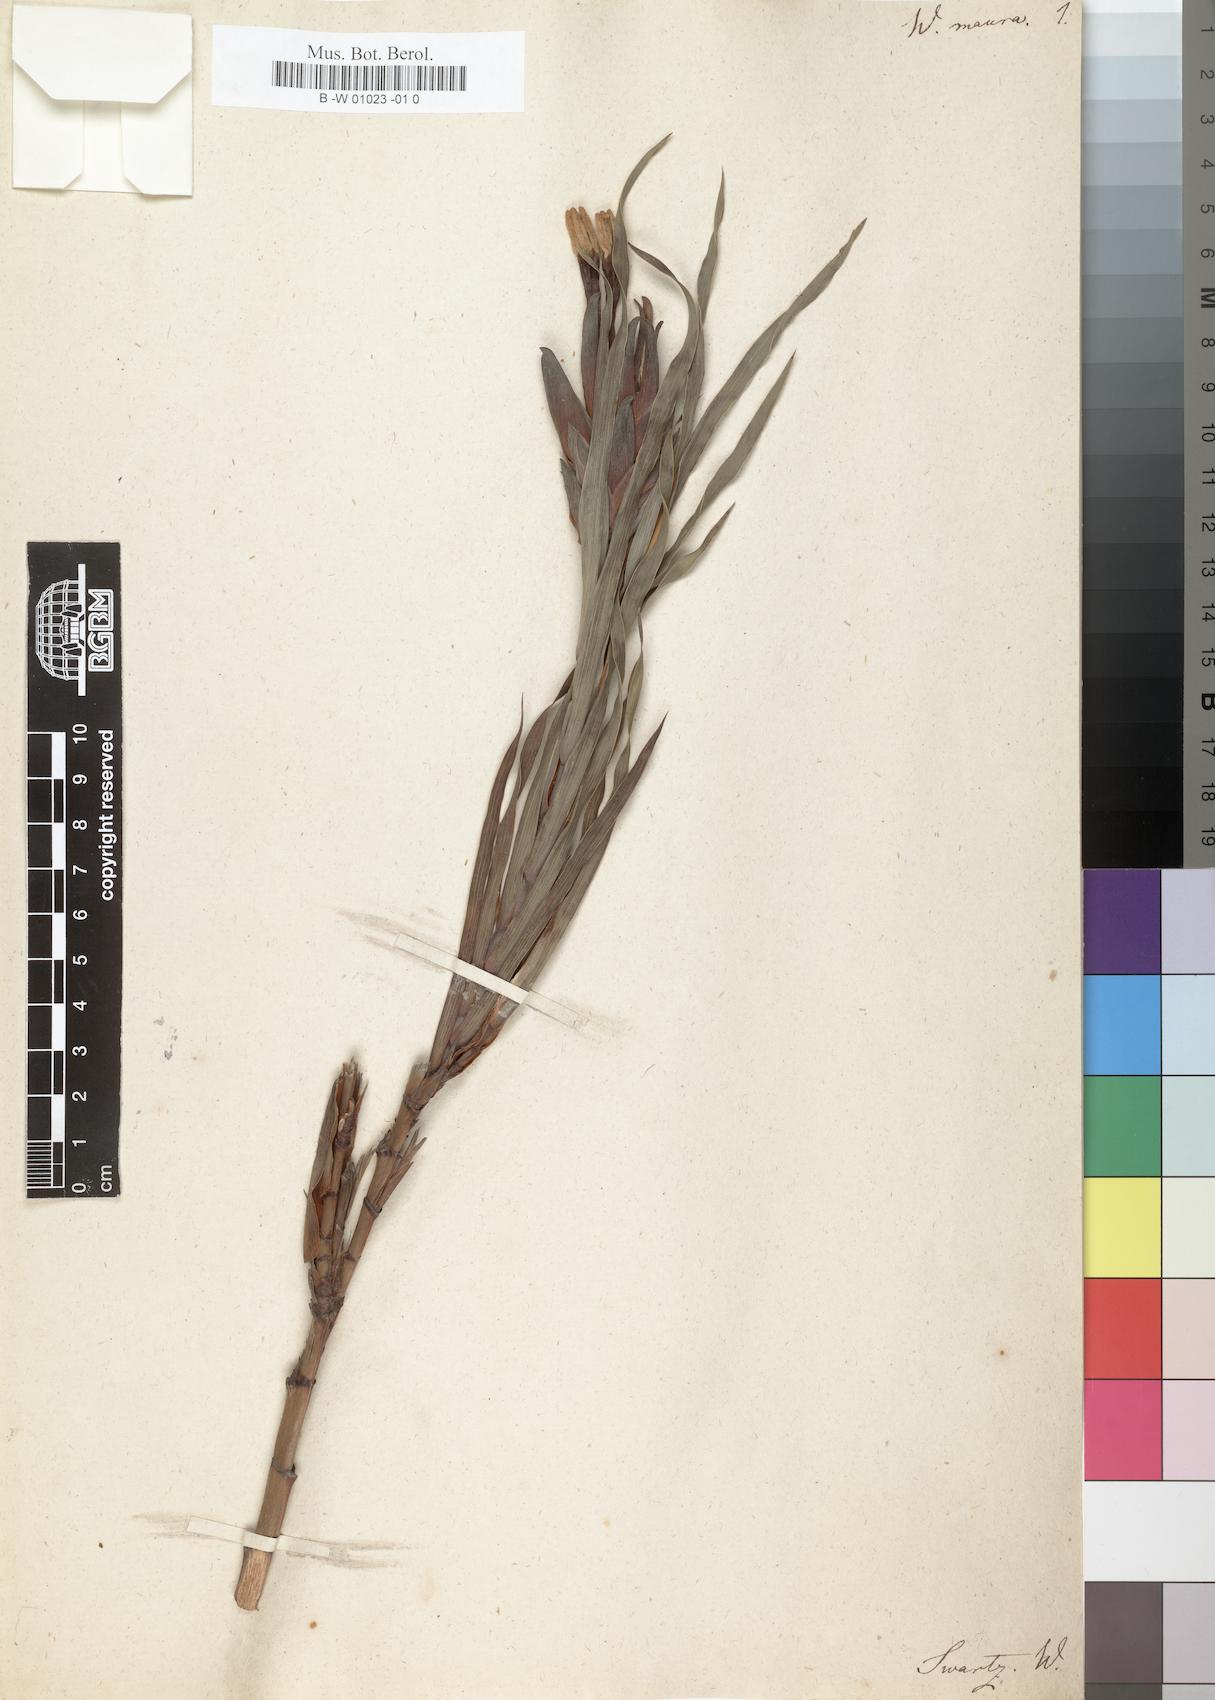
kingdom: Plantae
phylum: Tracheophyta
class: Liliopsida
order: Asparagales
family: Iridaceae
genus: Witsenia
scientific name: Witsenia maura
